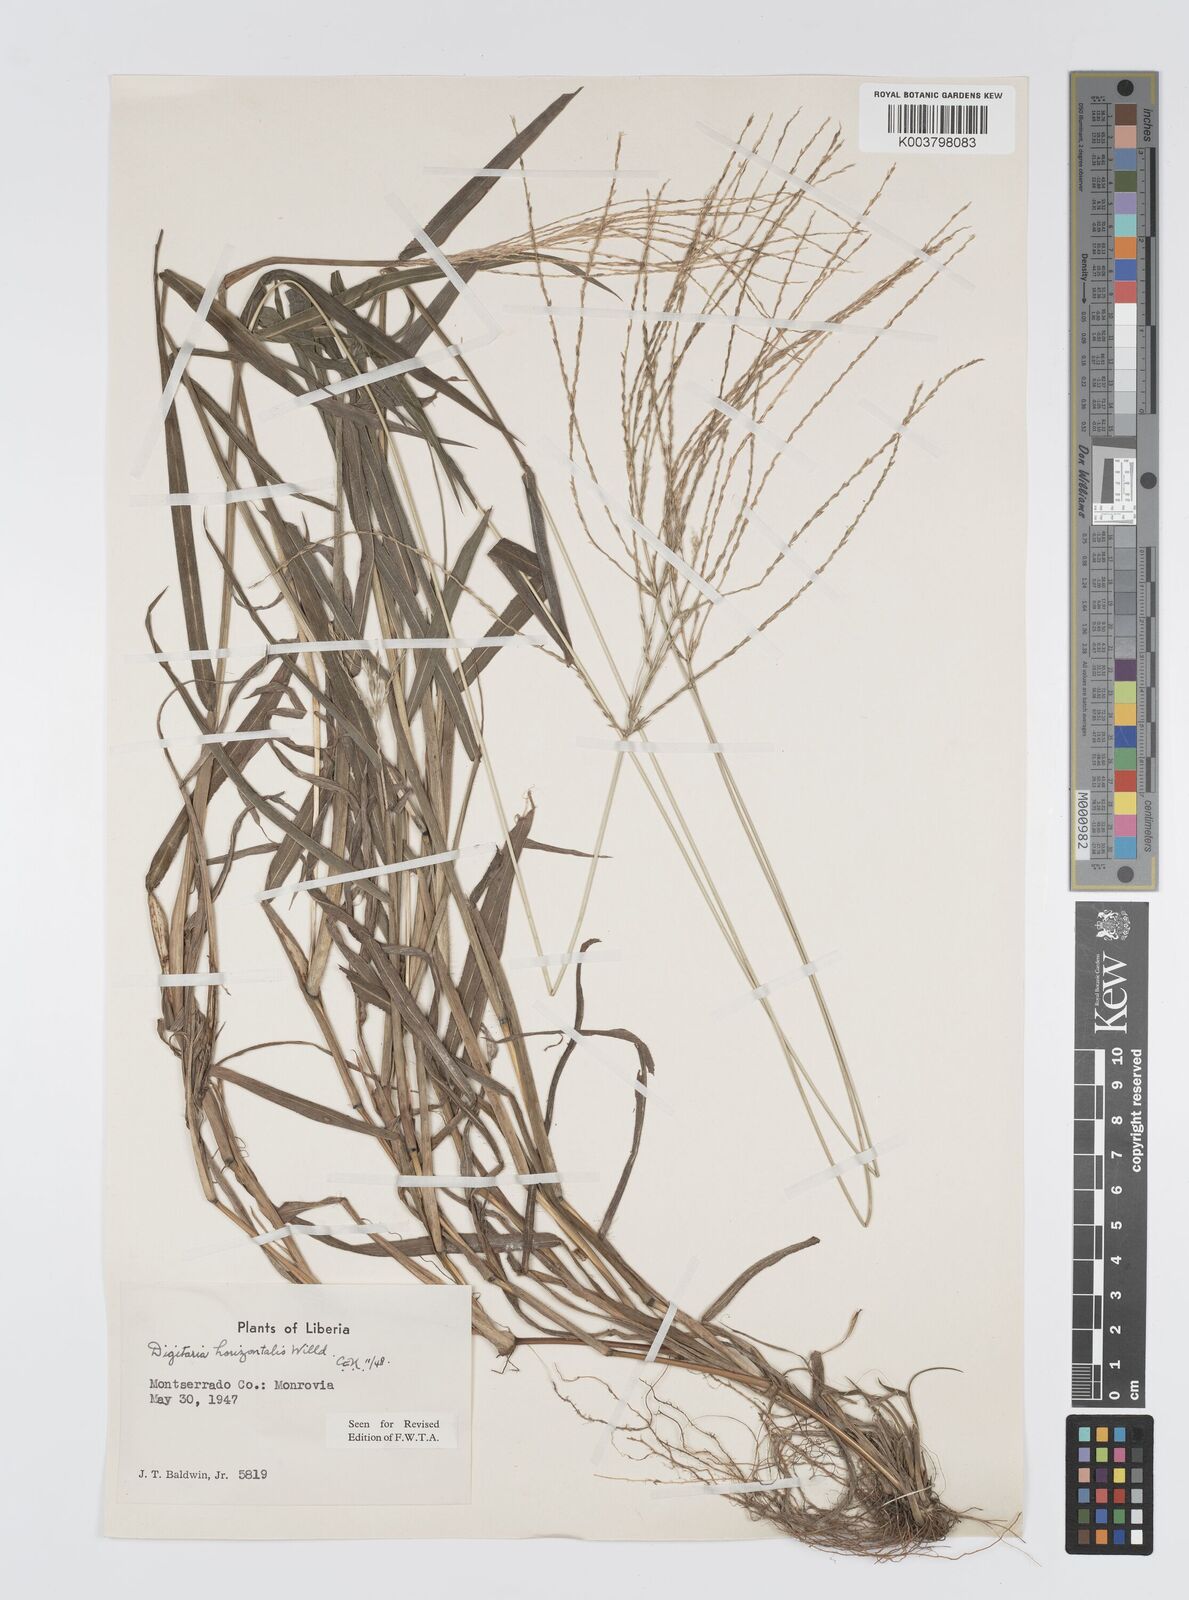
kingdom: Plantae
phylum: Tracheophyta
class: Liliopsida
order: Poales
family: Poaceae
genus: Digitaria
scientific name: Digitaria horizontalis
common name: Jamaican crabgrass
